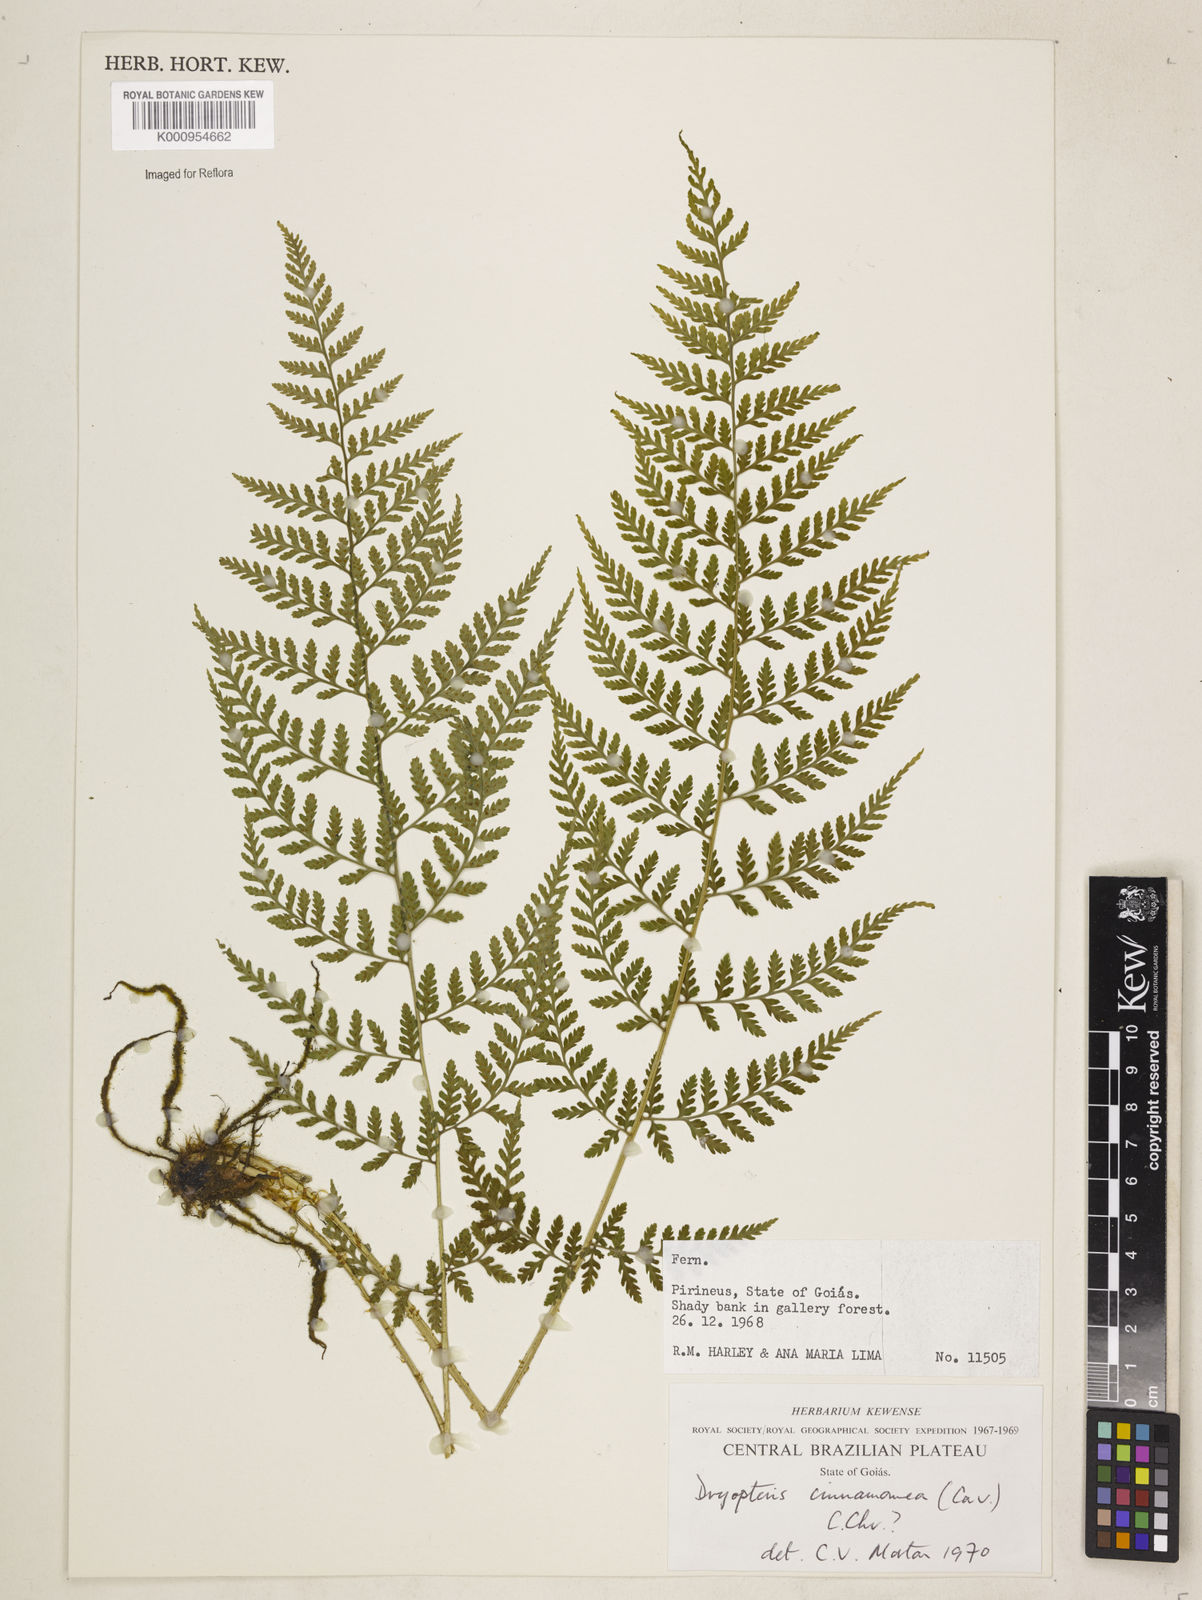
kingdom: Plantae
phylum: Tracheophyta
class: Polypodiopsida
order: Polypodiales
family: Dryopteridaceae
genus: Dryopteris
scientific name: Dryopteris cinnamomea
